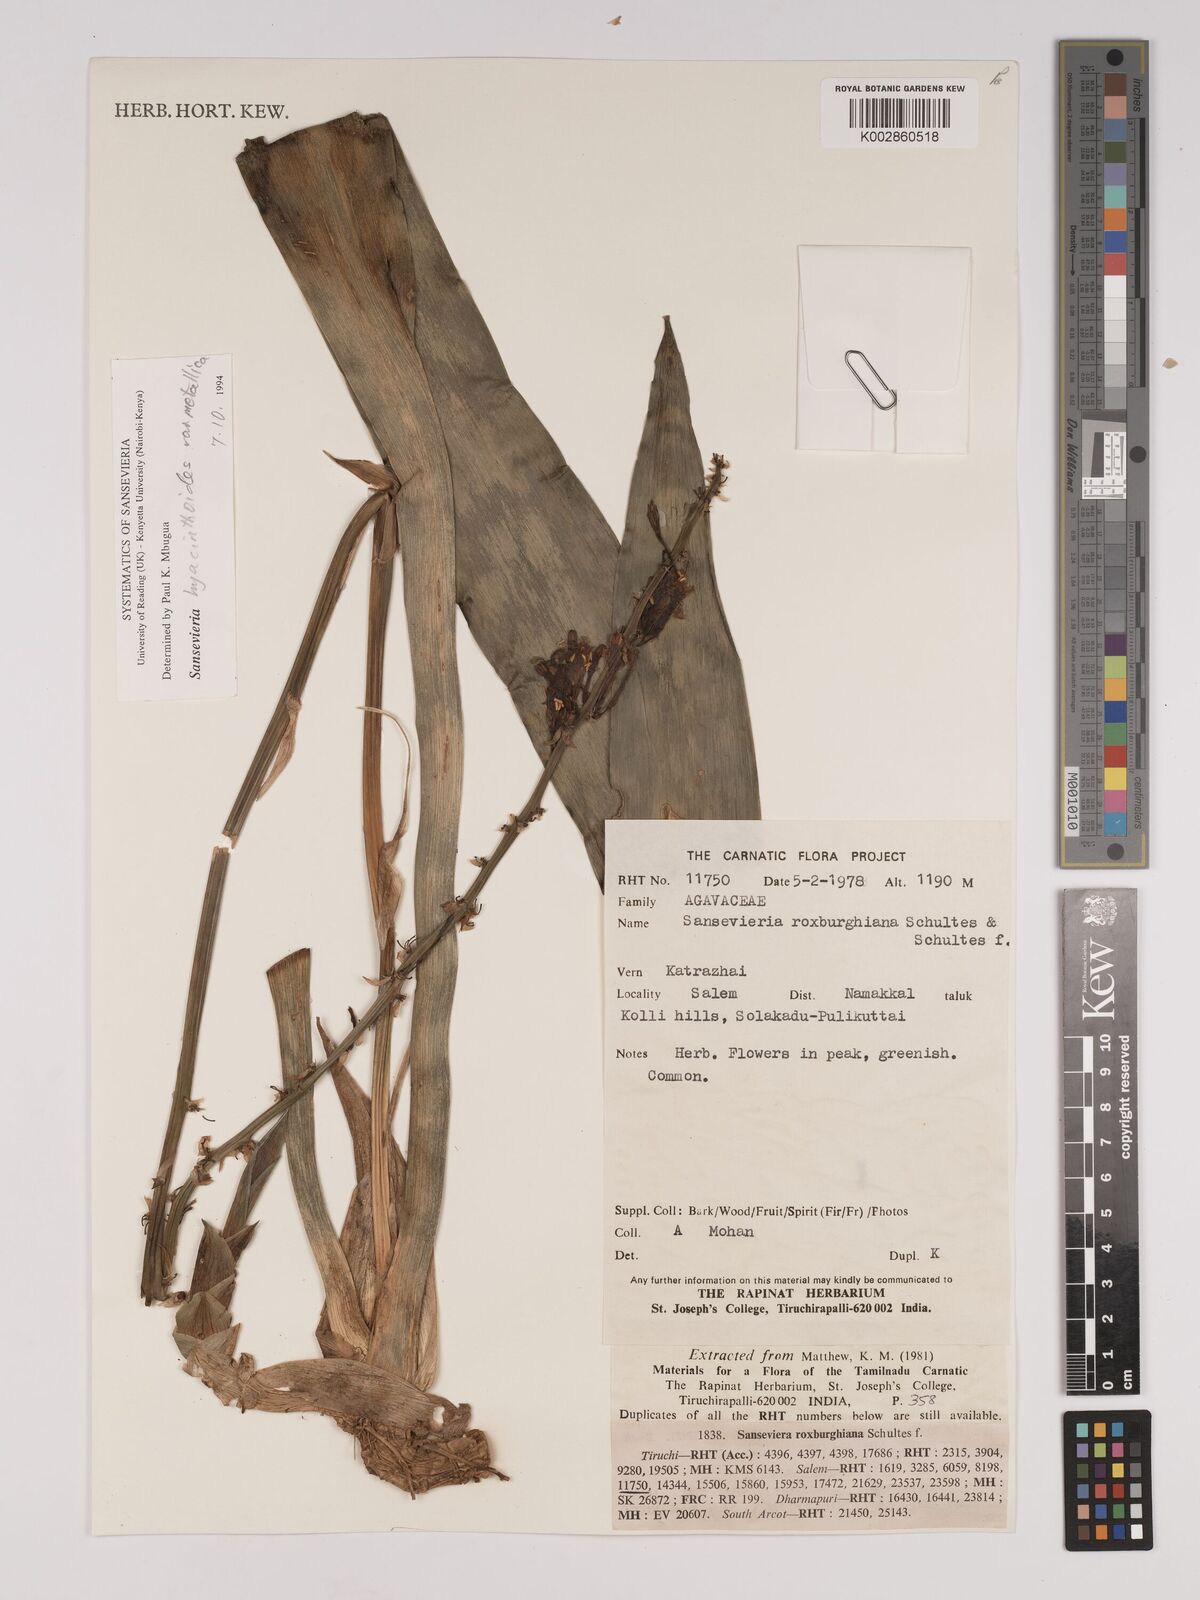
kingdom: Plantae
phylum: Tracheophyta
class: Liliopsida
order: Asparagales
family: Asparagaceae
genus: Dracaena
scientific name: Dracaena roxburghiana
